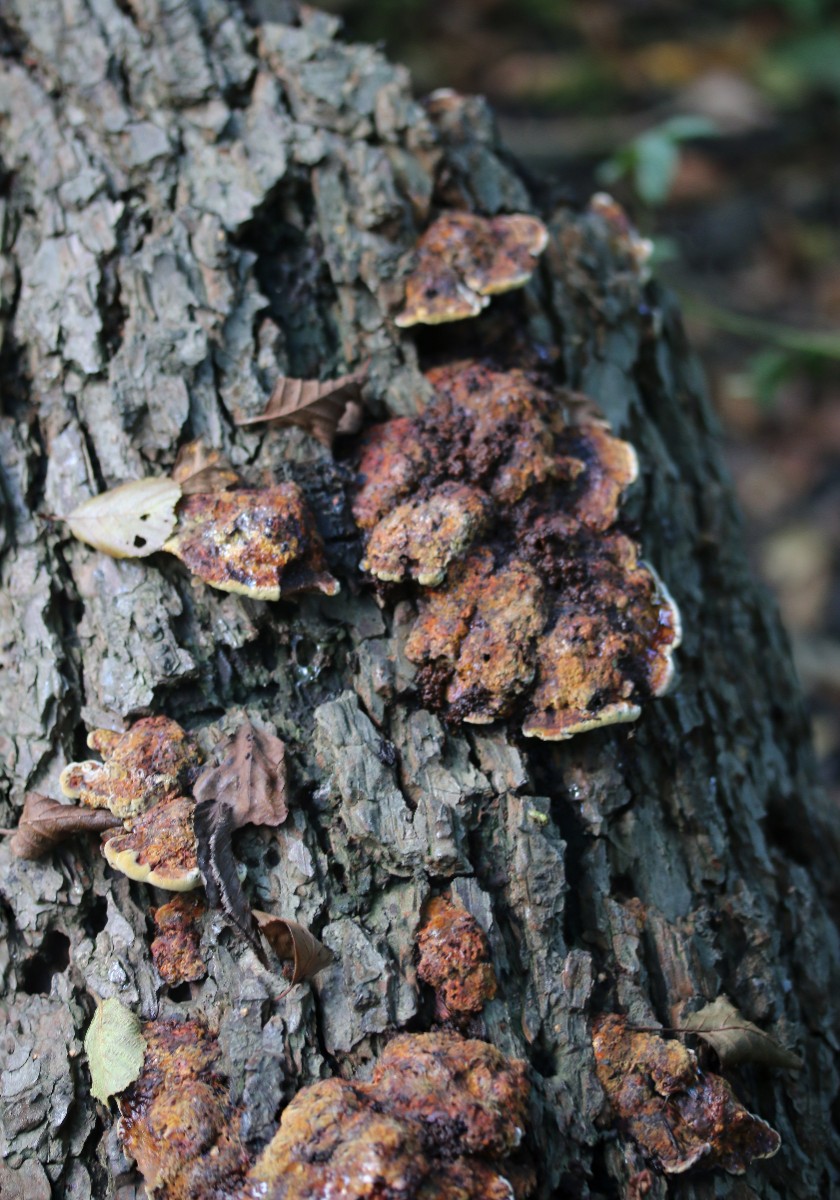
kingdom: Fungi
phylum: Basidiomycota
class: Agaricomycetes
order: Hymenochaetales
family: Hymenochaetaceae
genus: Xanthoporia
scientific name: Xanthoporia radiata
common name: elle-spejlporesvamp
